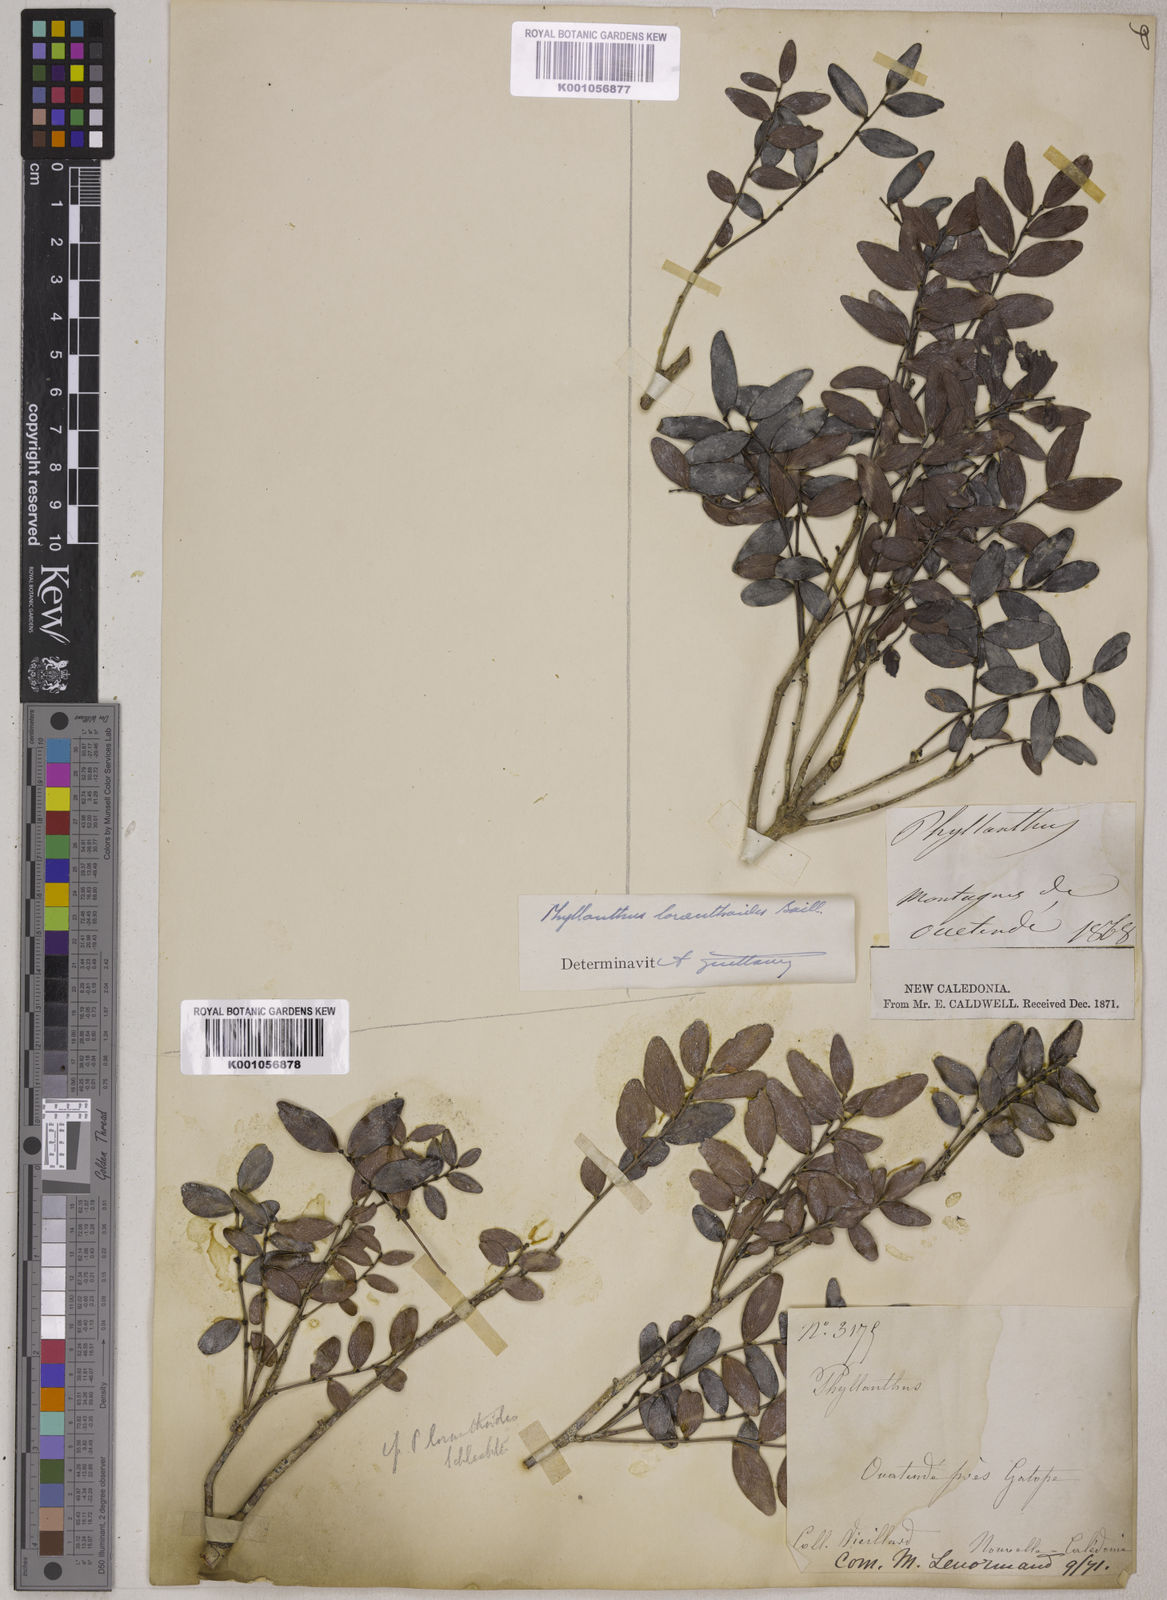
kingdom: Plantae
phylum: Tracheophyta
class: Magnoliopsida
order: Malpighiales
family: Phyllanthaceae
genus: Phyllanthus
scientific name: Phyllanthus loranthoides
